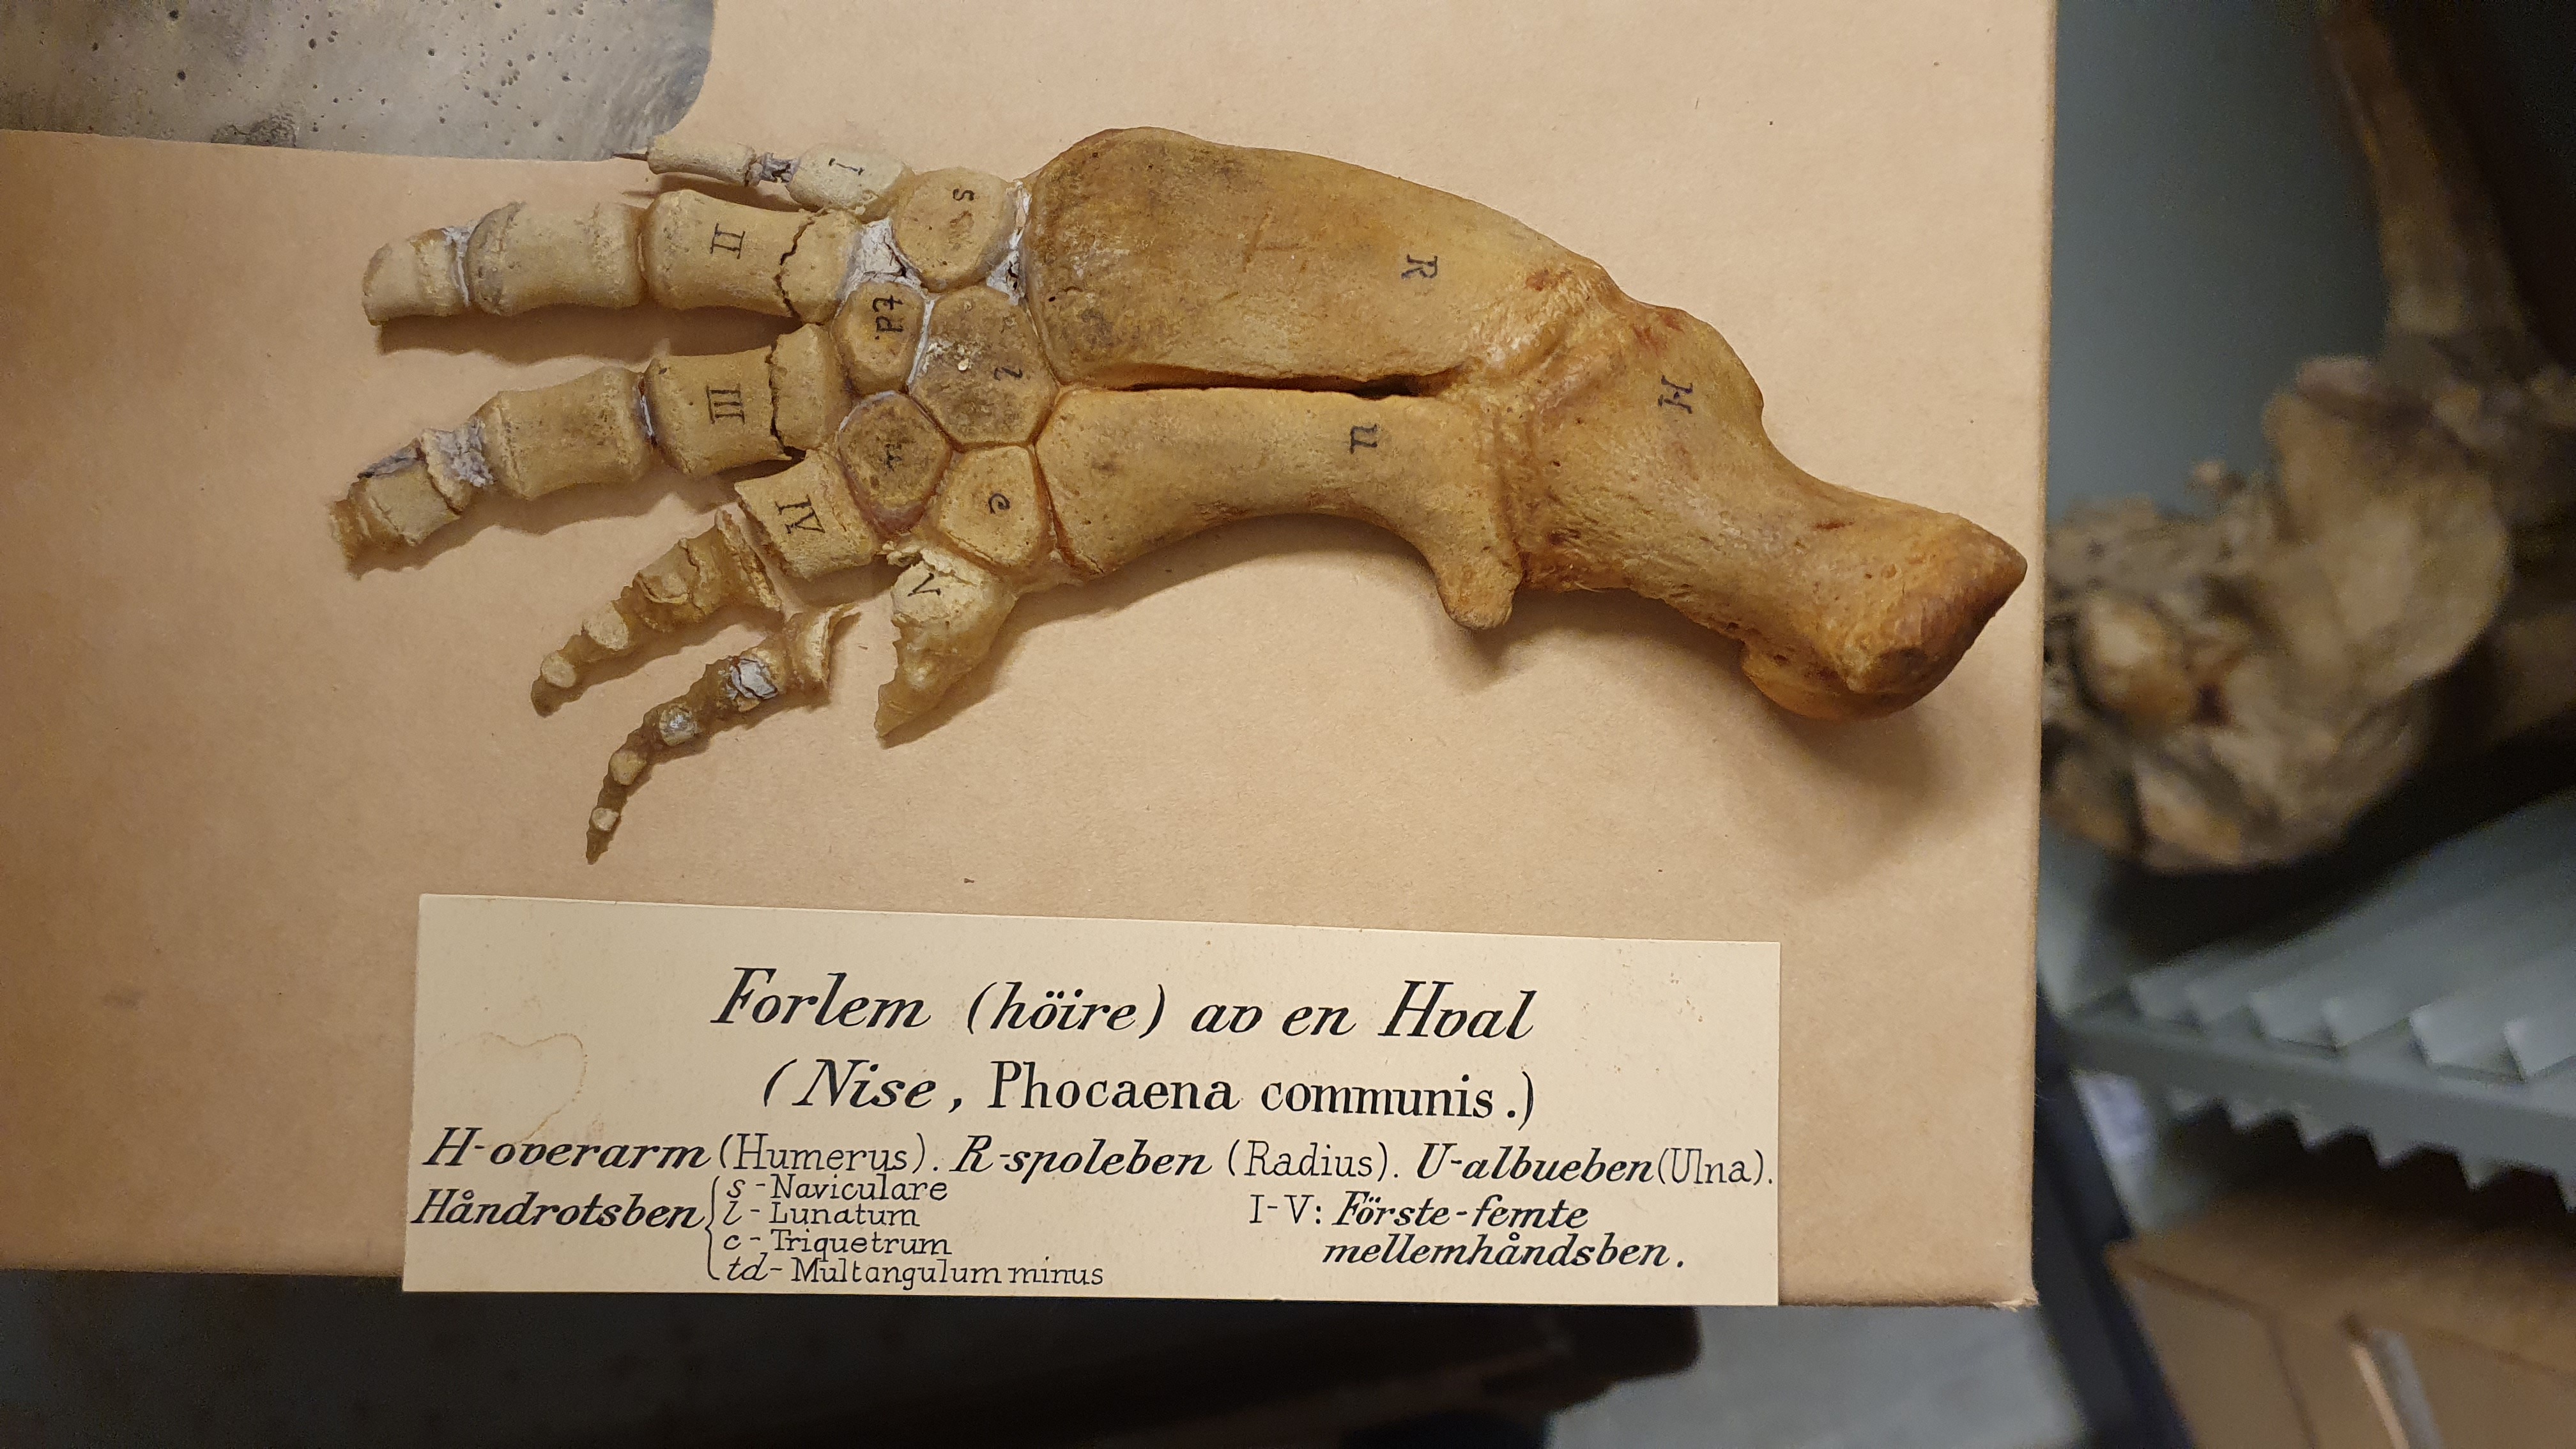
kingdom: Animalia
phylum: Chordata
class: Mammalia
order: Cetacea
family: Phocoenidae
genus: Phocoena
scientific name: Phocoena phocoena
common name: Harbor porpoise
